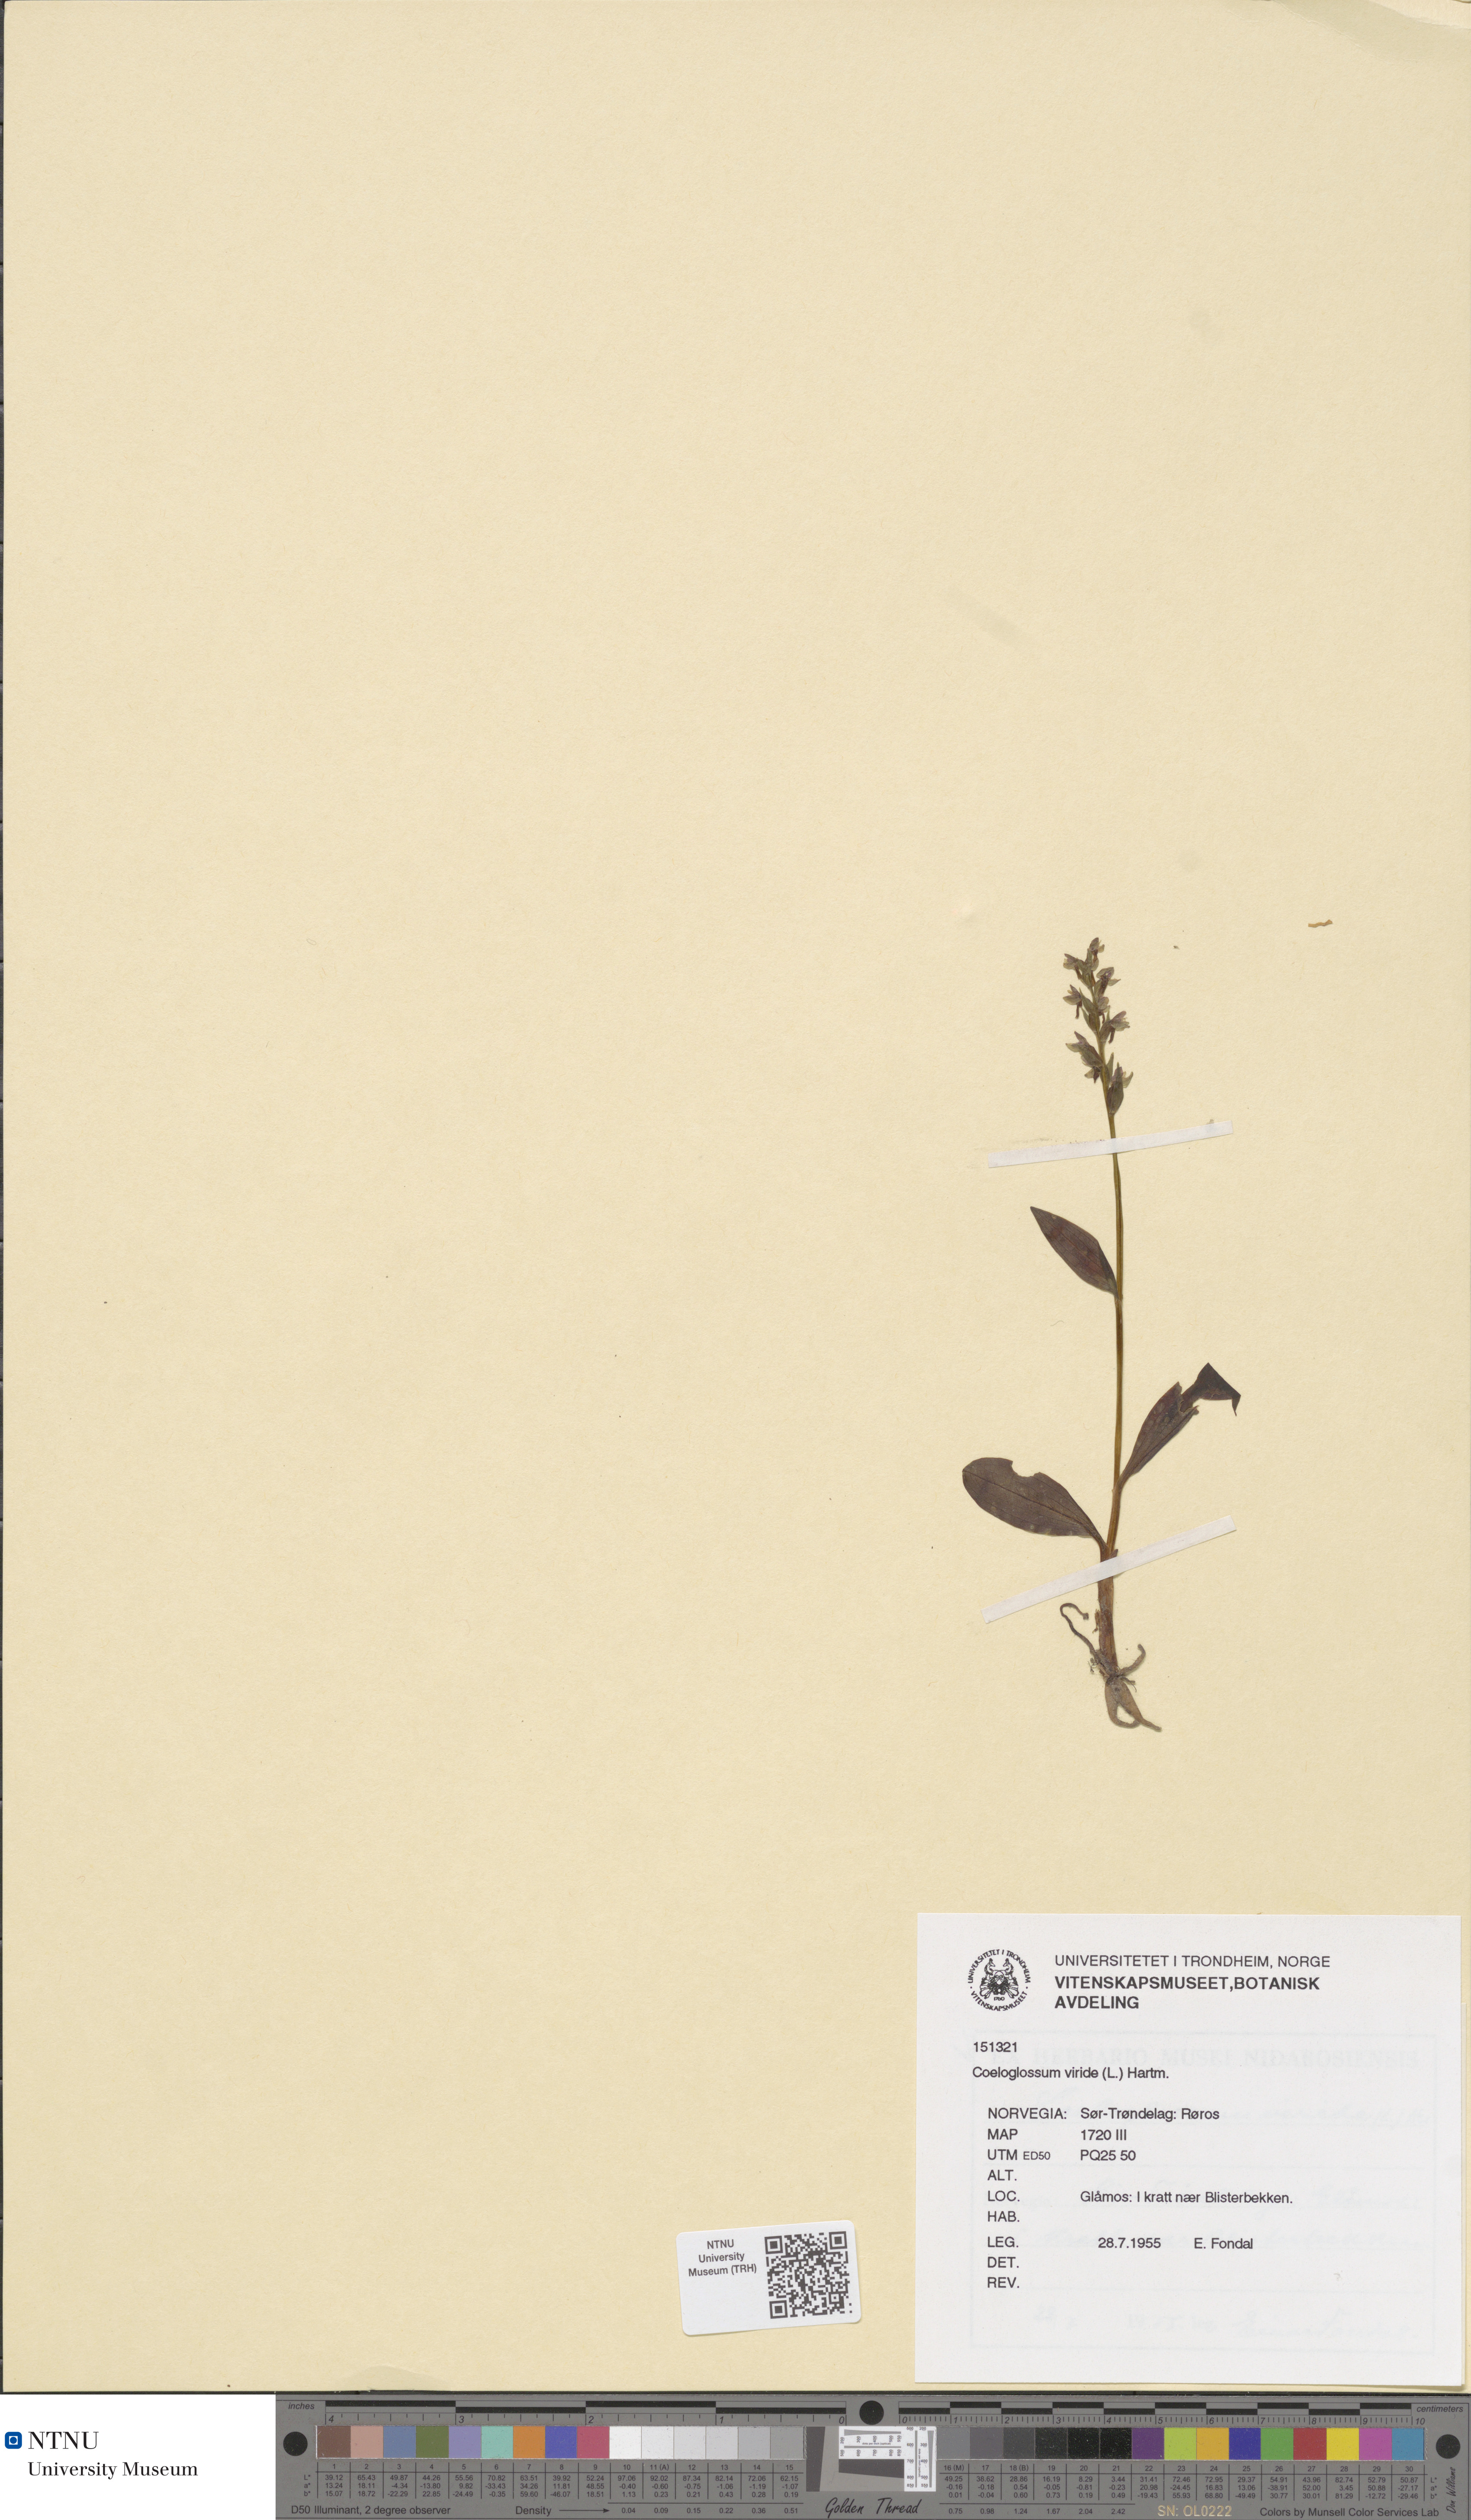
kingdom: Plantae
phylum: Tracheophyta
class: Liliopsida
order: Asparagales
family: Orchidaceae
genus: Dactylorhiza
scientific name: Dactylorhiza viridis
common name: Longbract frog orchid
